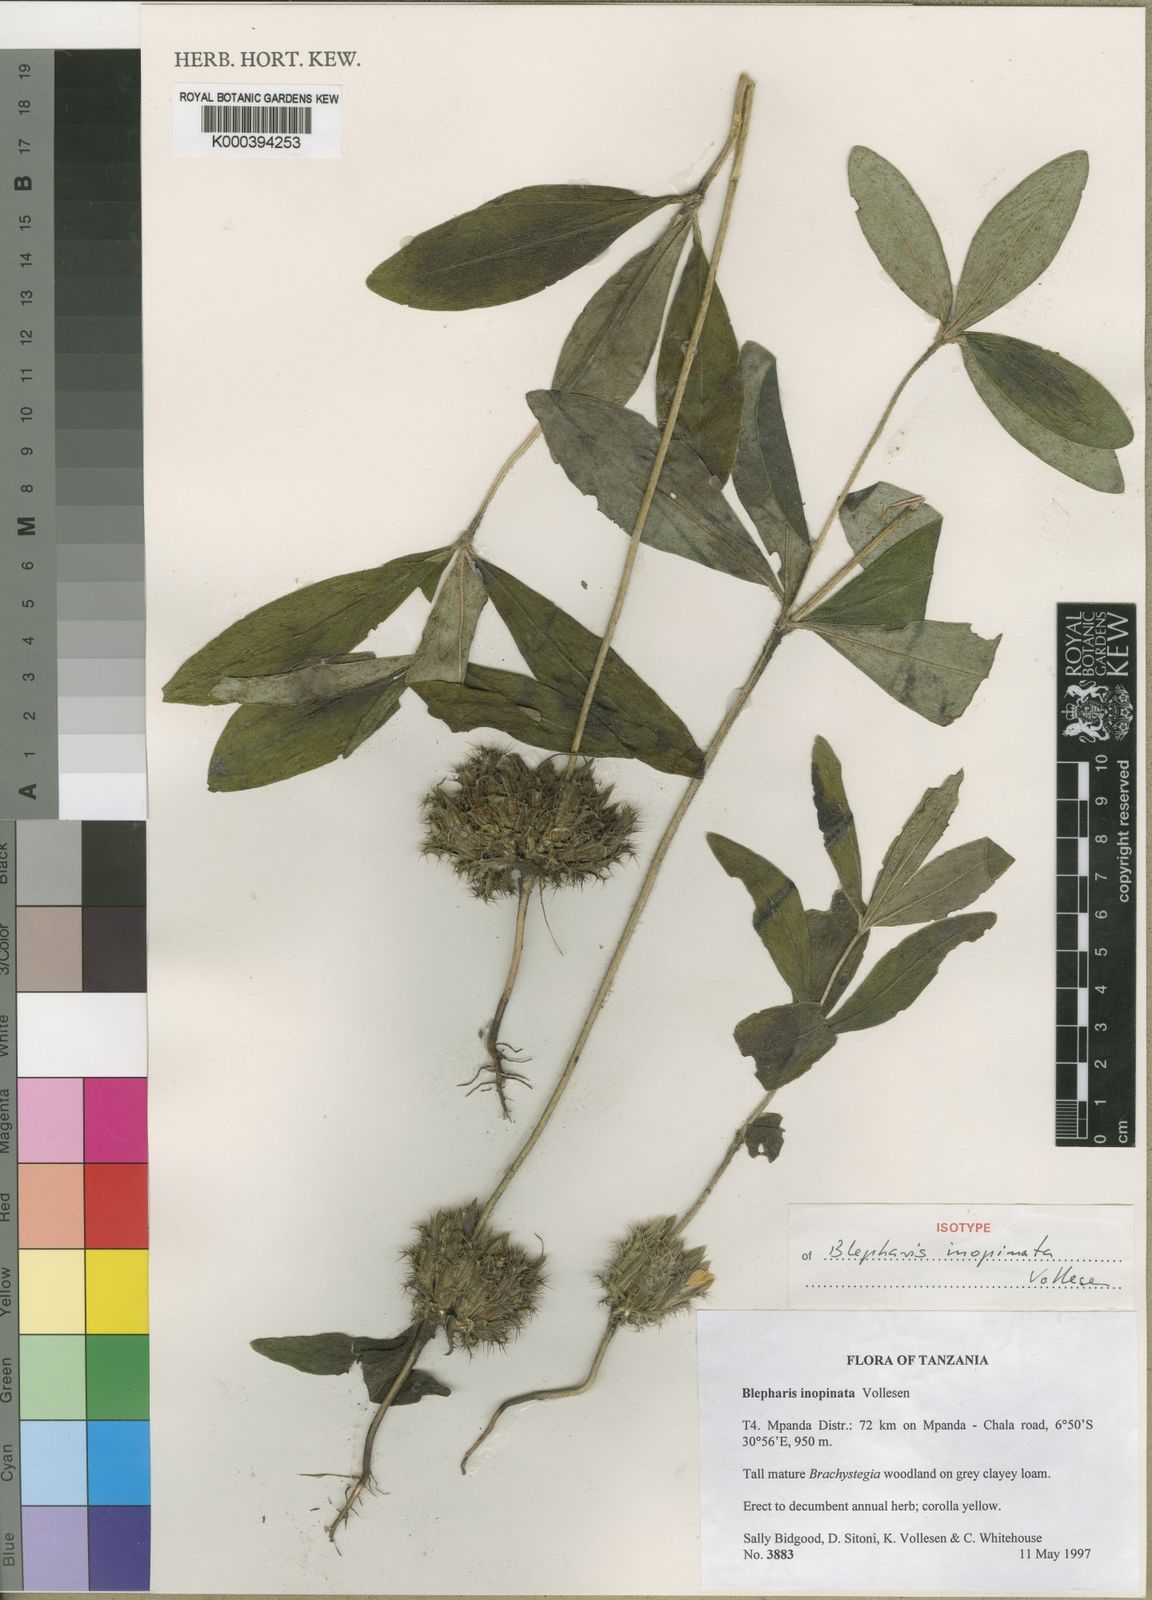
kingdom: Plantae
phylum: Tracheophyta
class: Magnoliopsida
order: Lamiales
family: Acanthaceae
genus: Blepharis
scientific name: Blepharis inopinata
